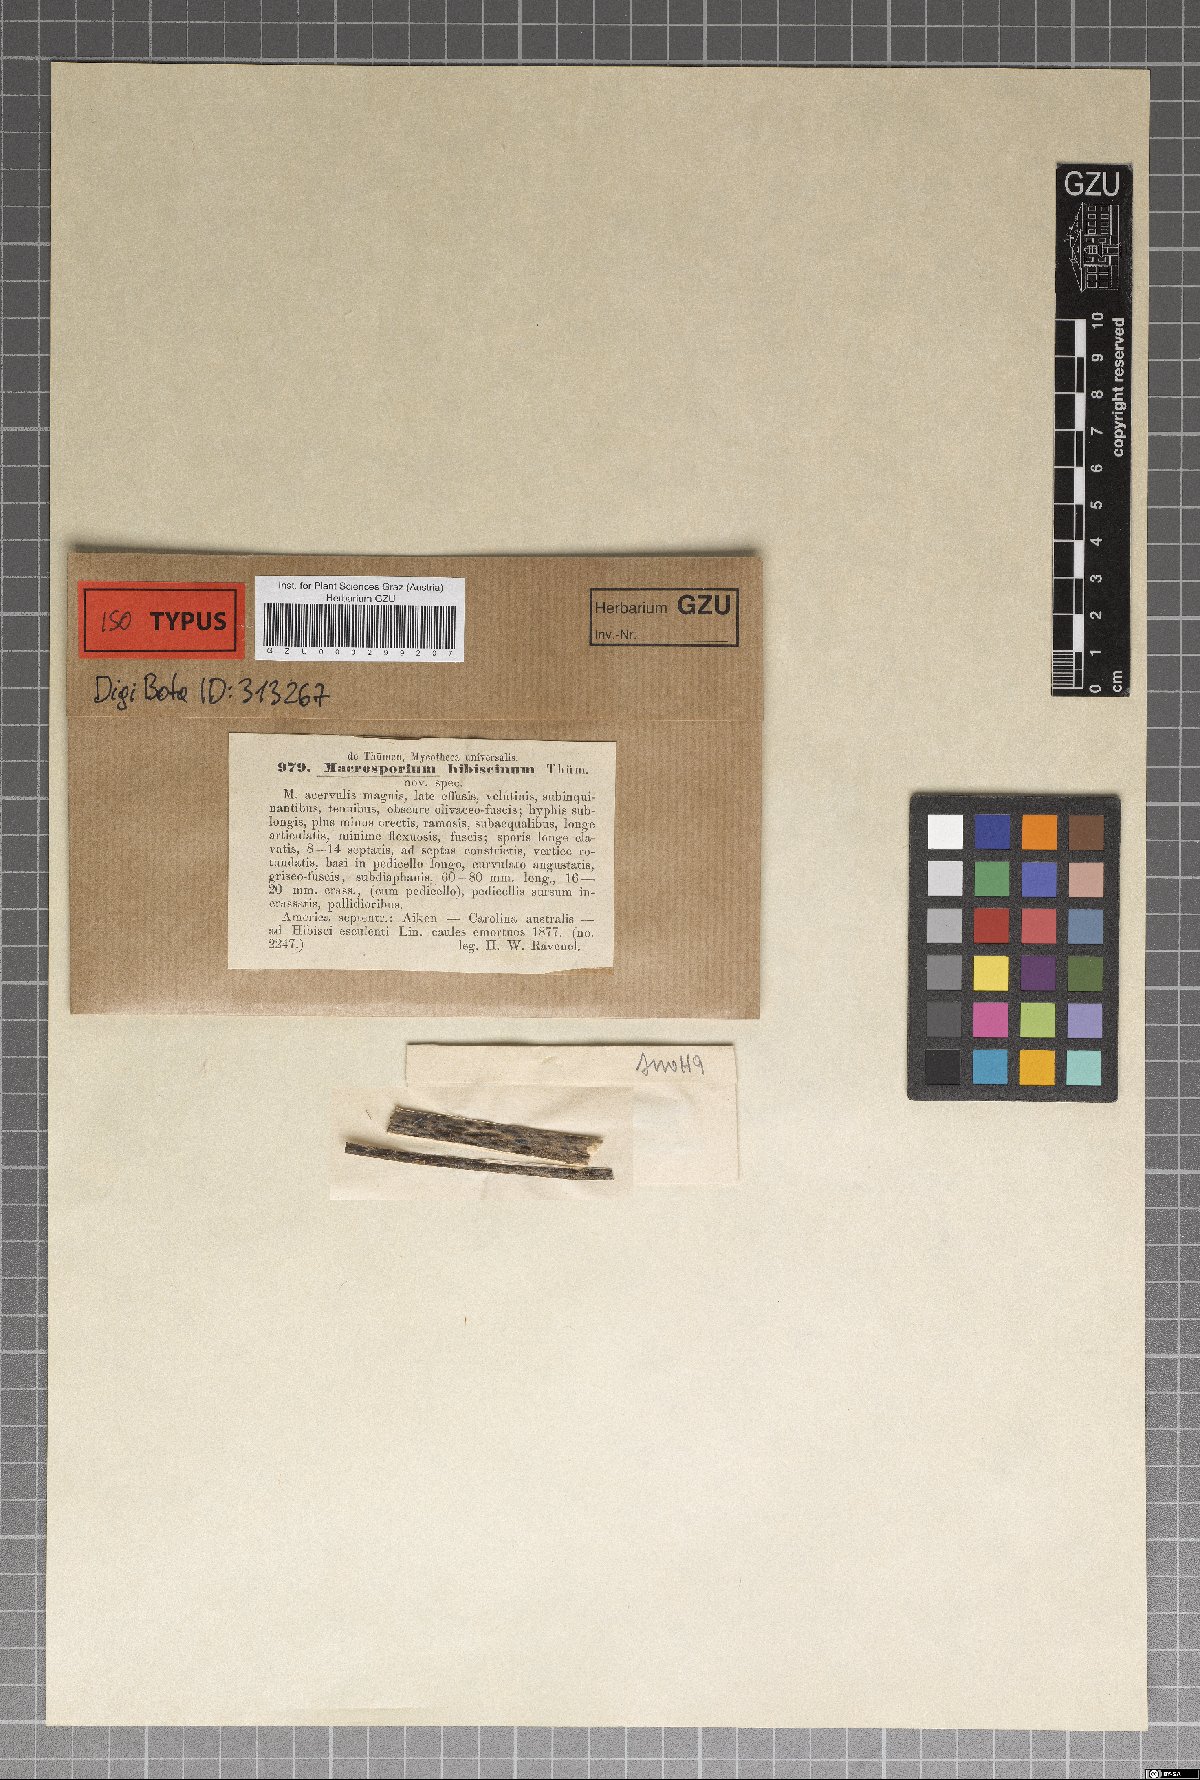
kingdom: Fungi
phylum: Ascomycota
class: Dothideomycetes
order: Pleosporales
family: Pleosporaceae
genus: Alternaria
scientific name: Alternaria hibiscina
